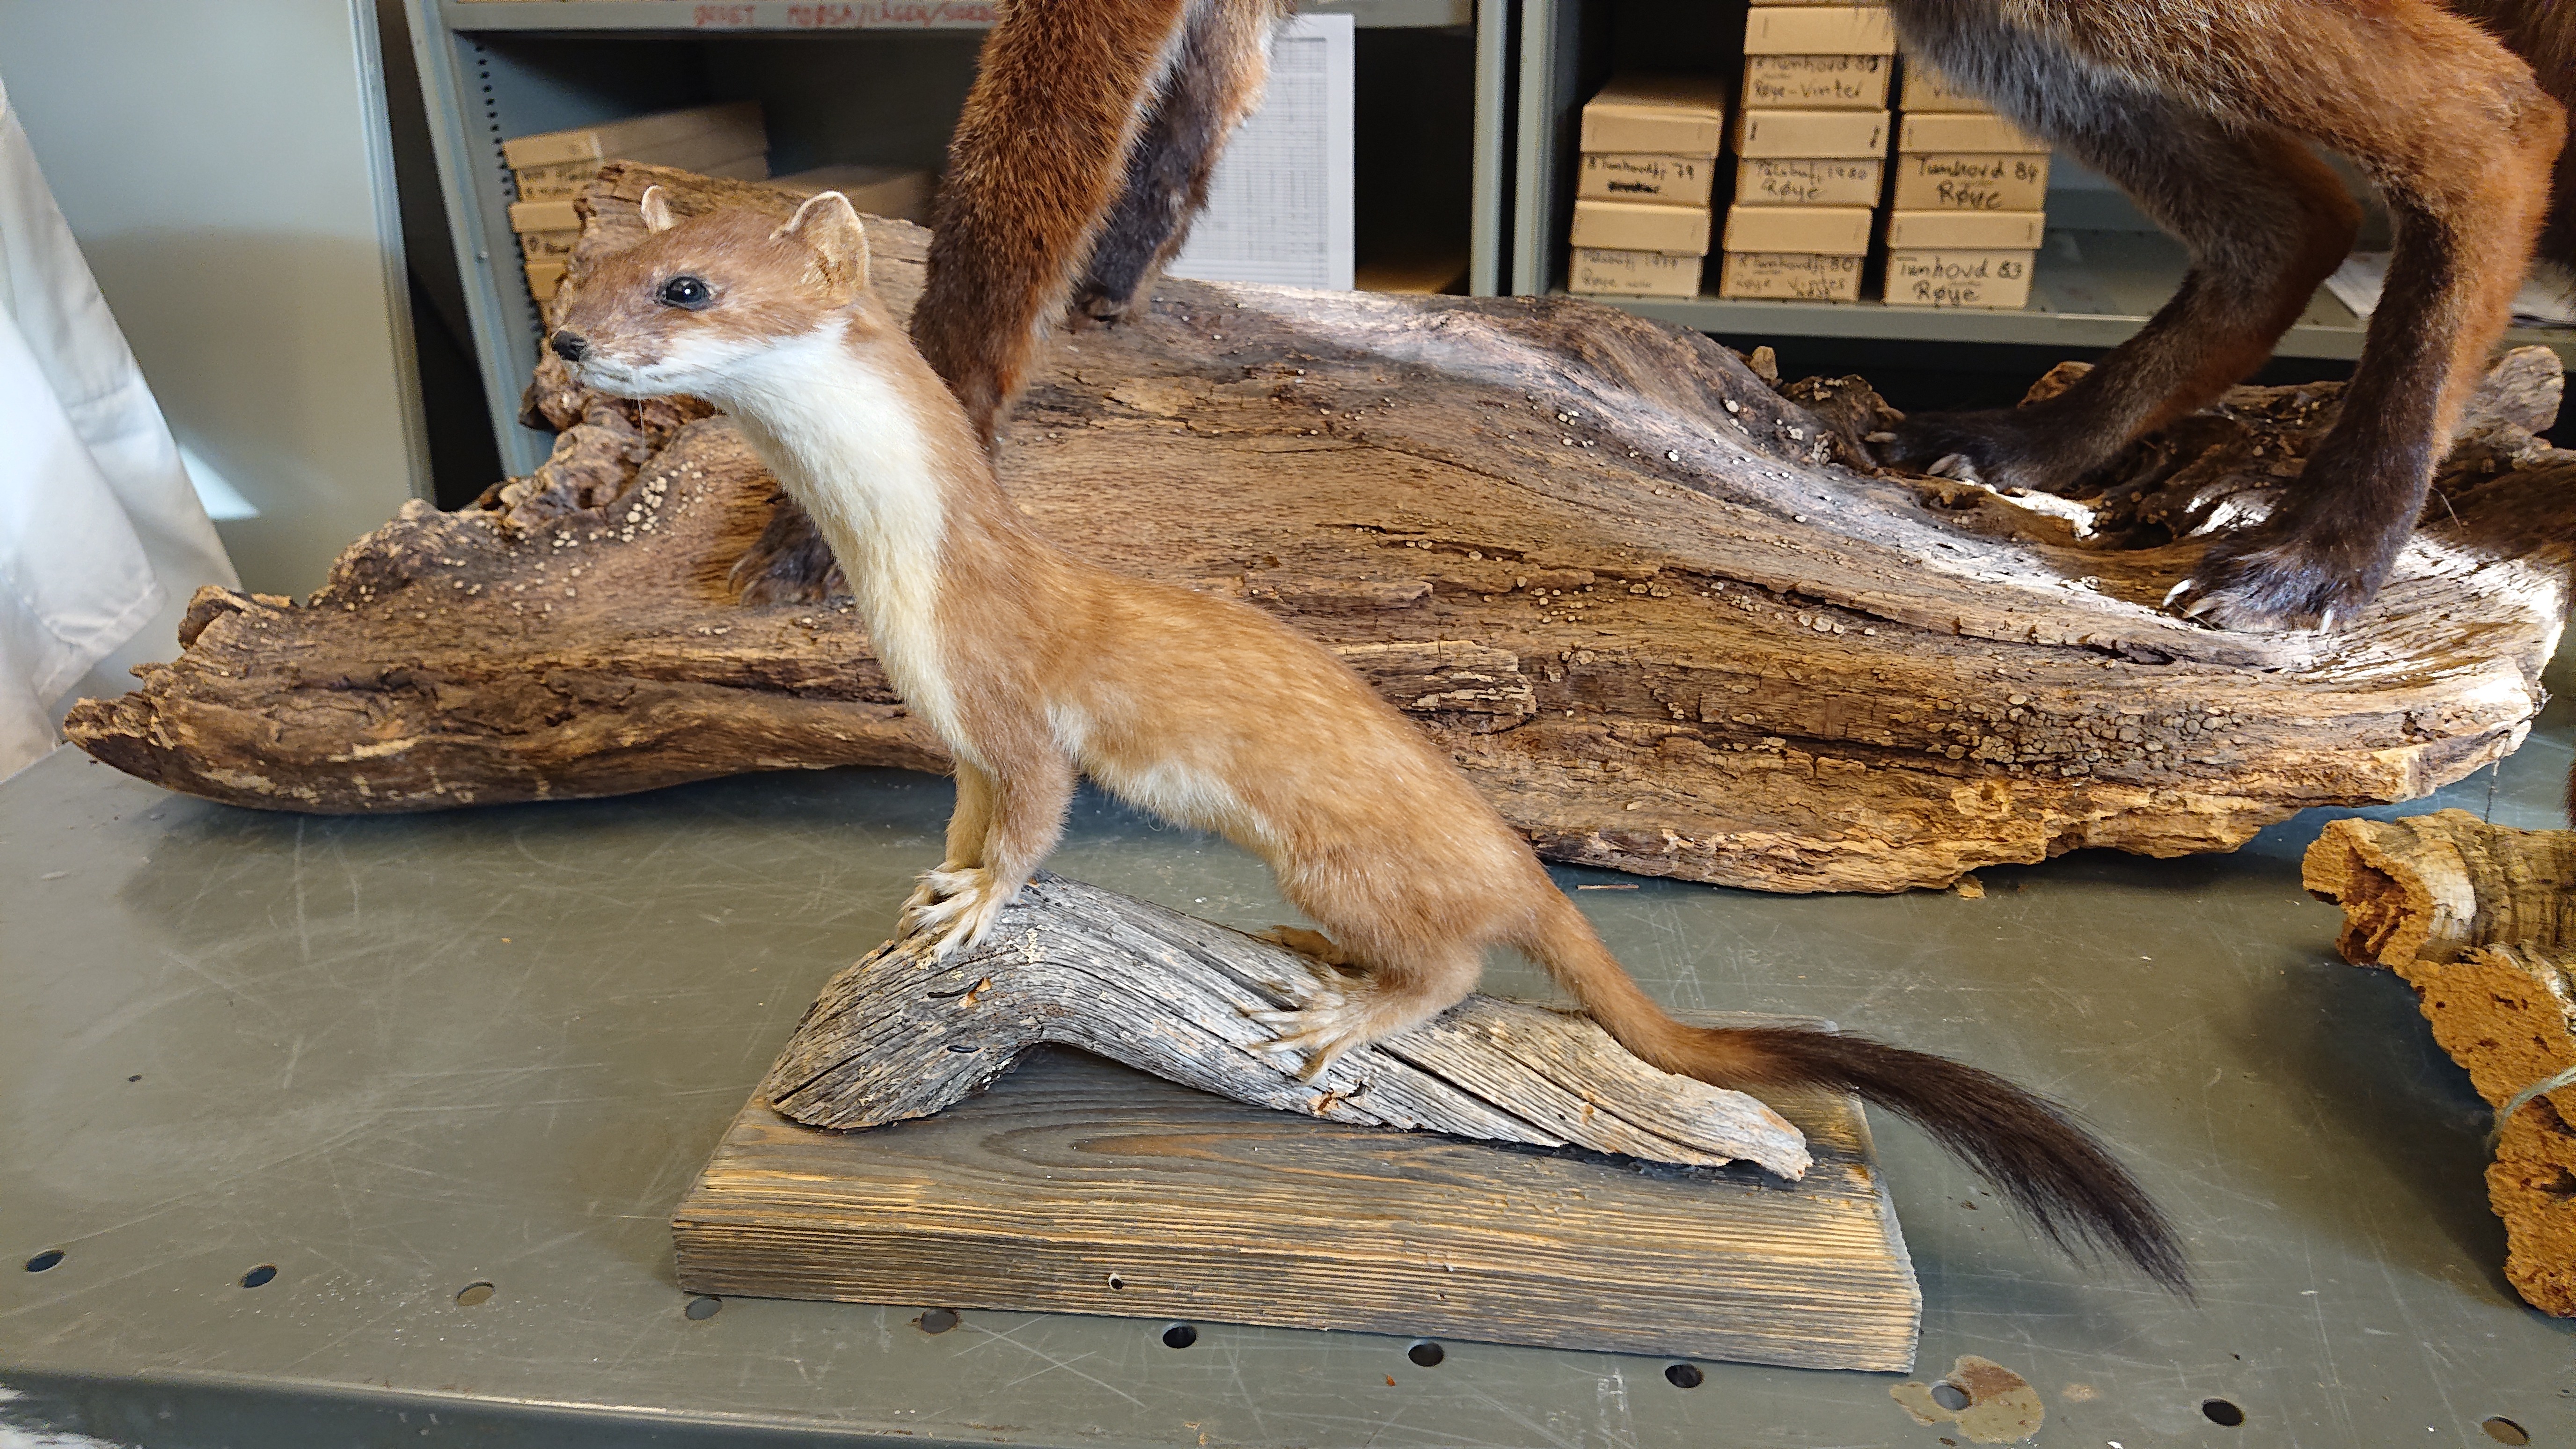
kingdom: Animalia
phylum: Chordata
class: Mammalia
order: Carnivora
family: Mustelidae
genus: Mustela
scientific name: Mustela erminea
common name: Stoat
